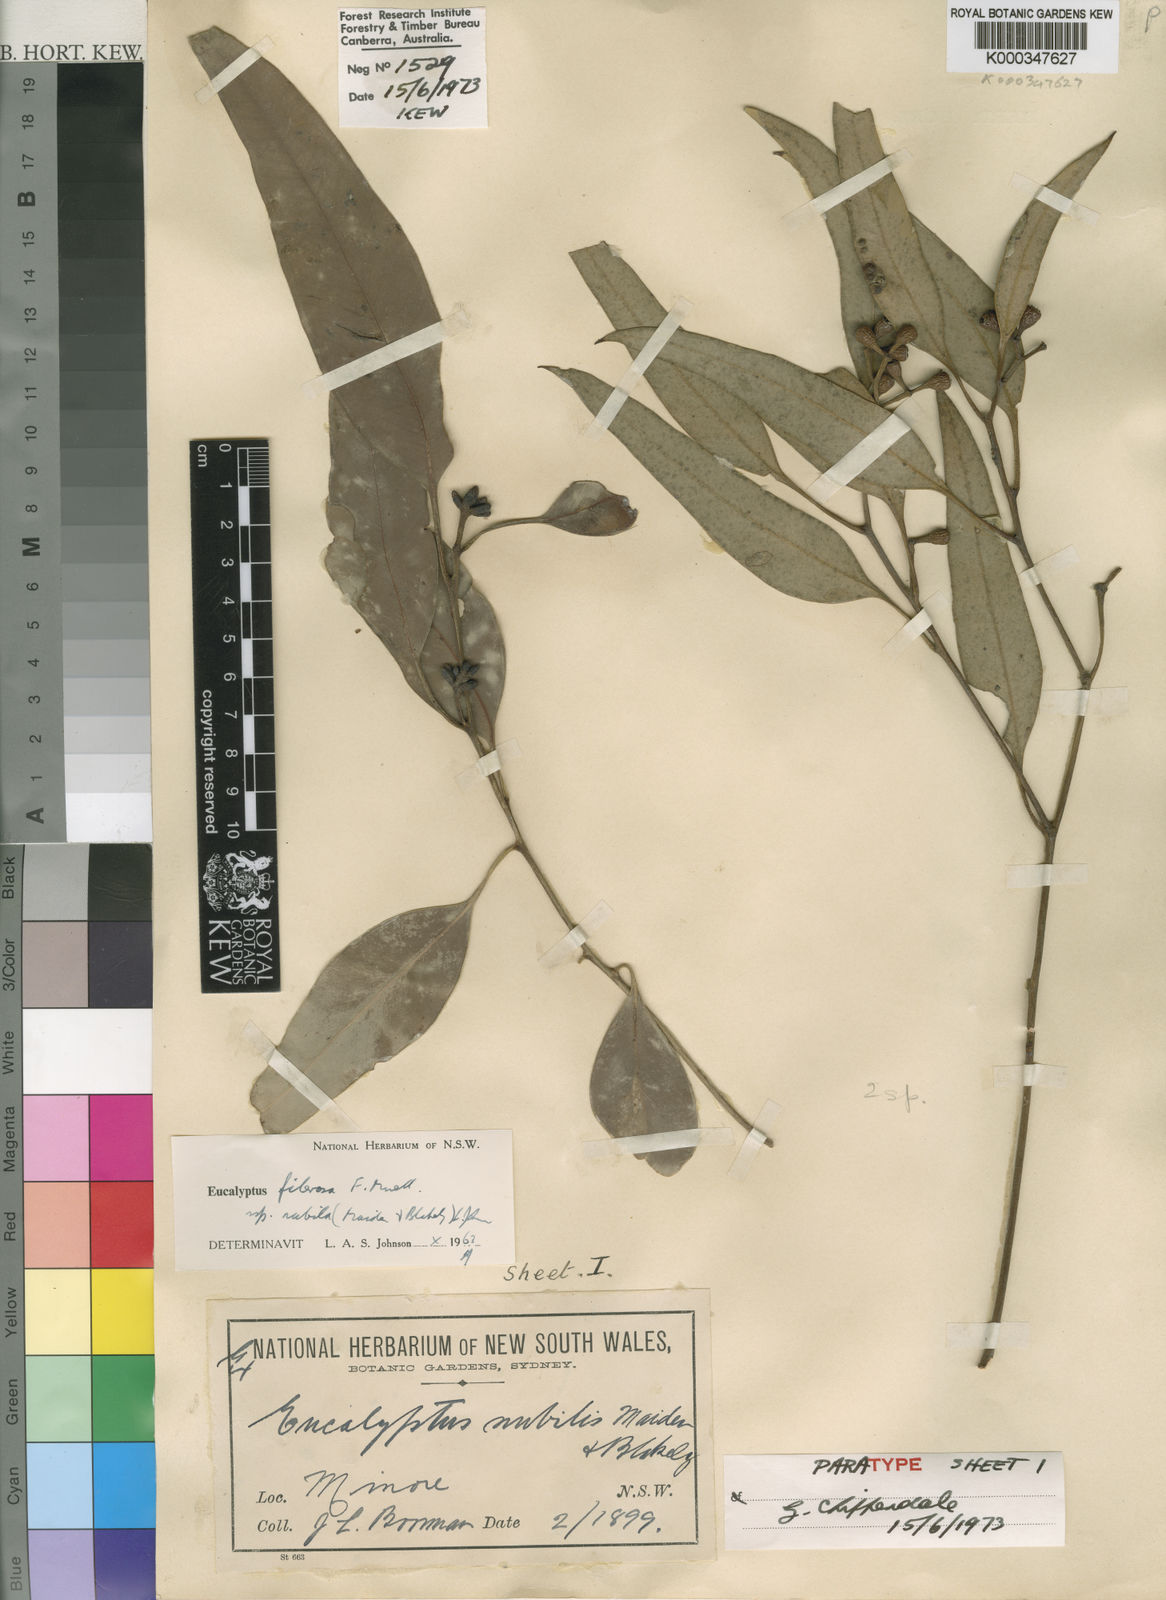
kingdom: Plantae
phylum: Tracheophyta
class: Magnoliopsida
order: Myrtales
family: Myrtaceae
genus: Eucalyptus
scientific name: Eucalyptus fibrosa
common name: Red ironbark
